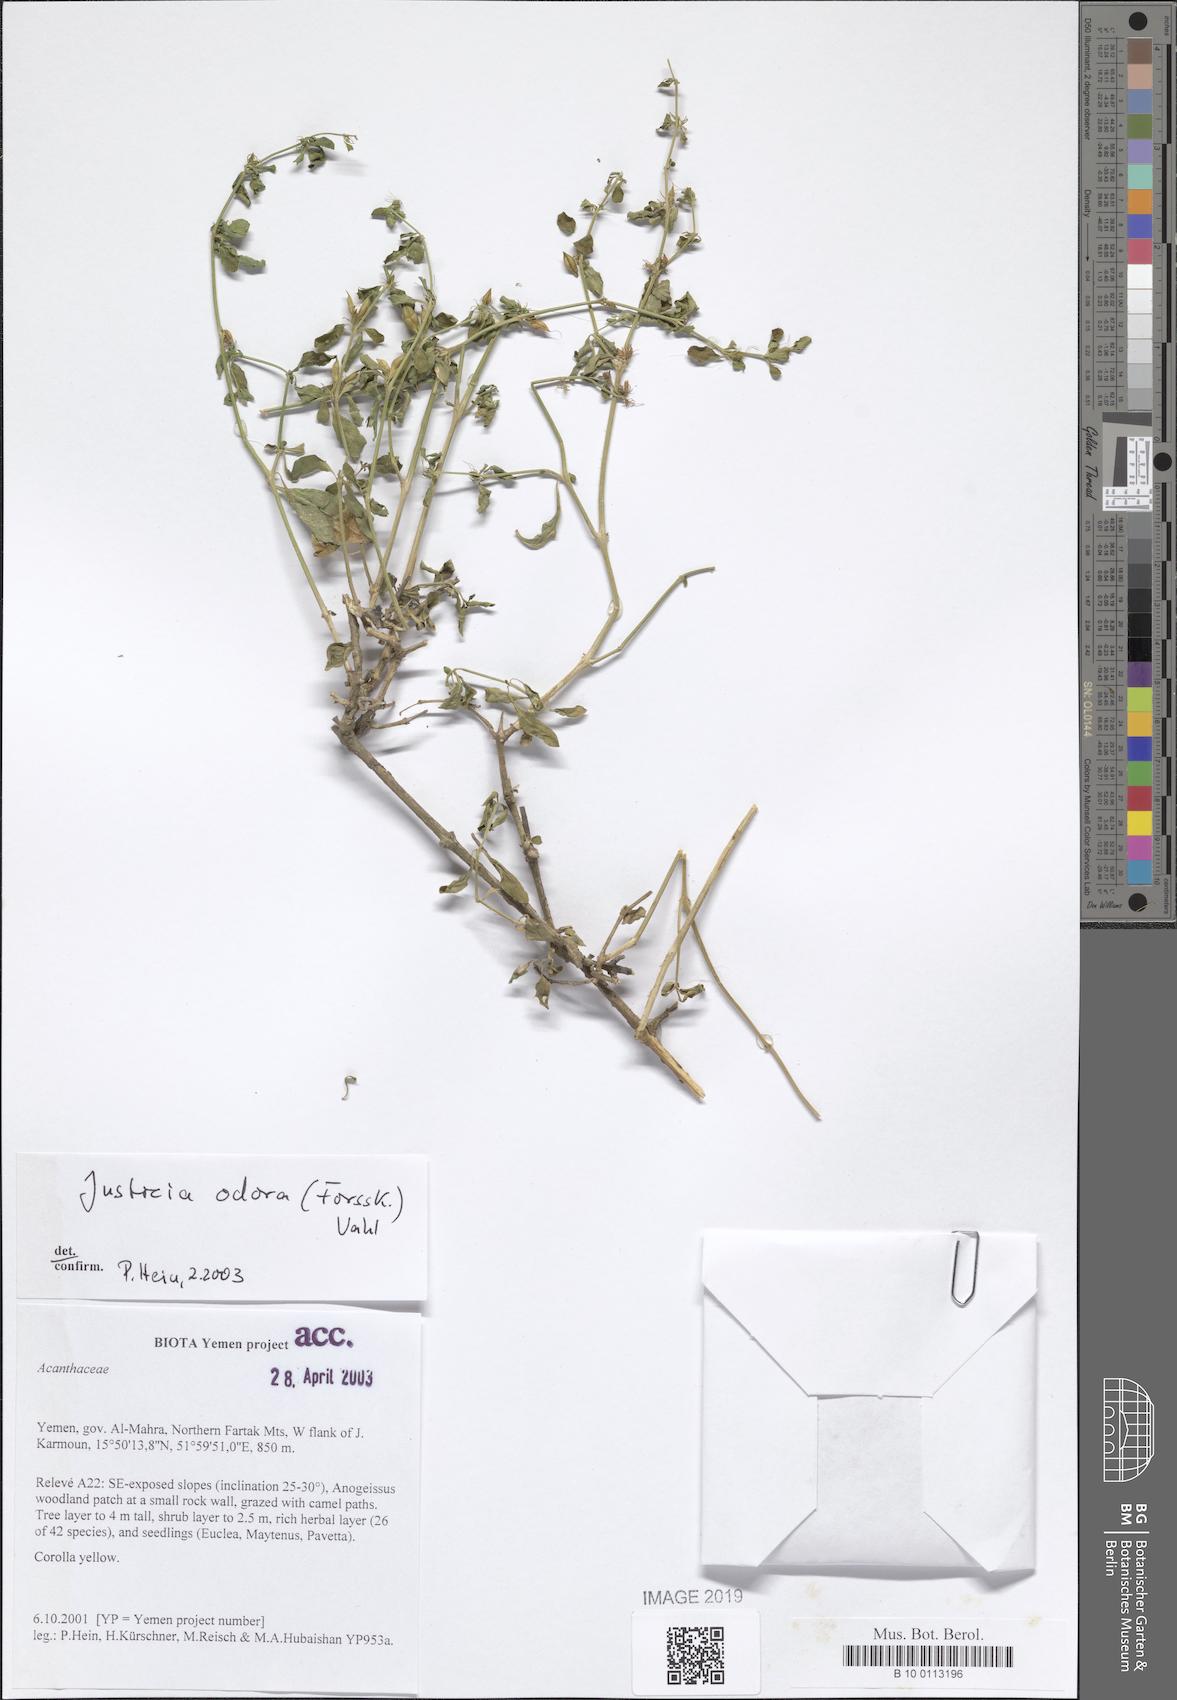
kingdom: Plantae
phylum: Tracheophyta
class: Magnoliopsida
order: Lamiales
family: Acanthaceae
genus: Justicia
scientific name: Justicia odora
